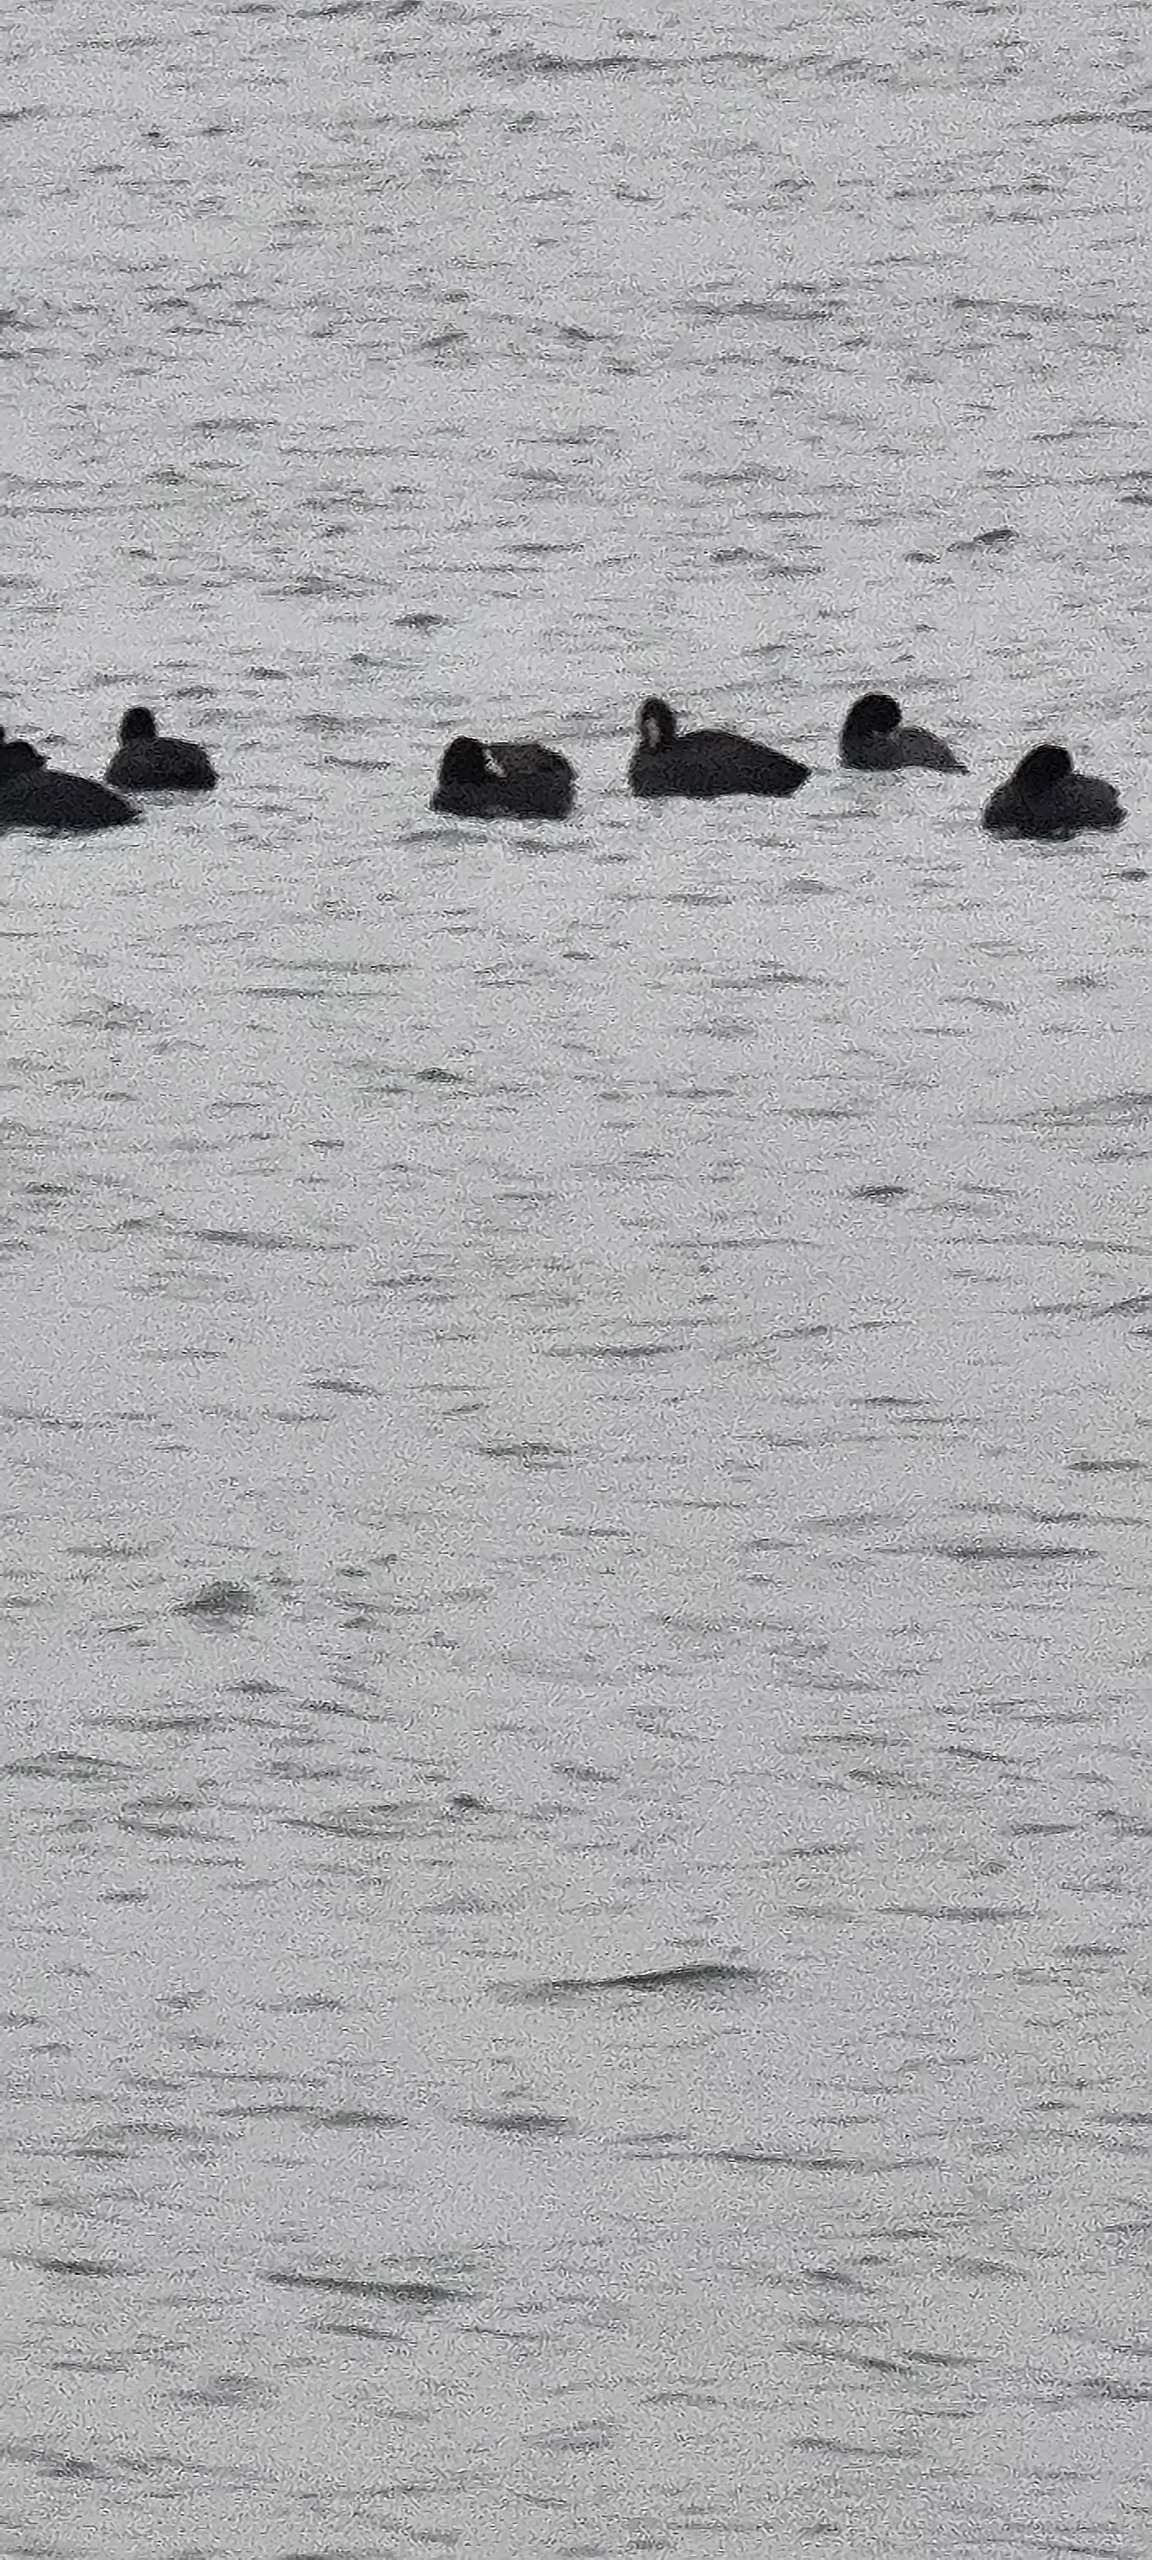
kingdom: Animalia
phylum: Chordata
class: Aves
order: Gruiformes
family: Rallidae
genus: Fulica
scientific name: Fulica atra
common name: Blishøne
